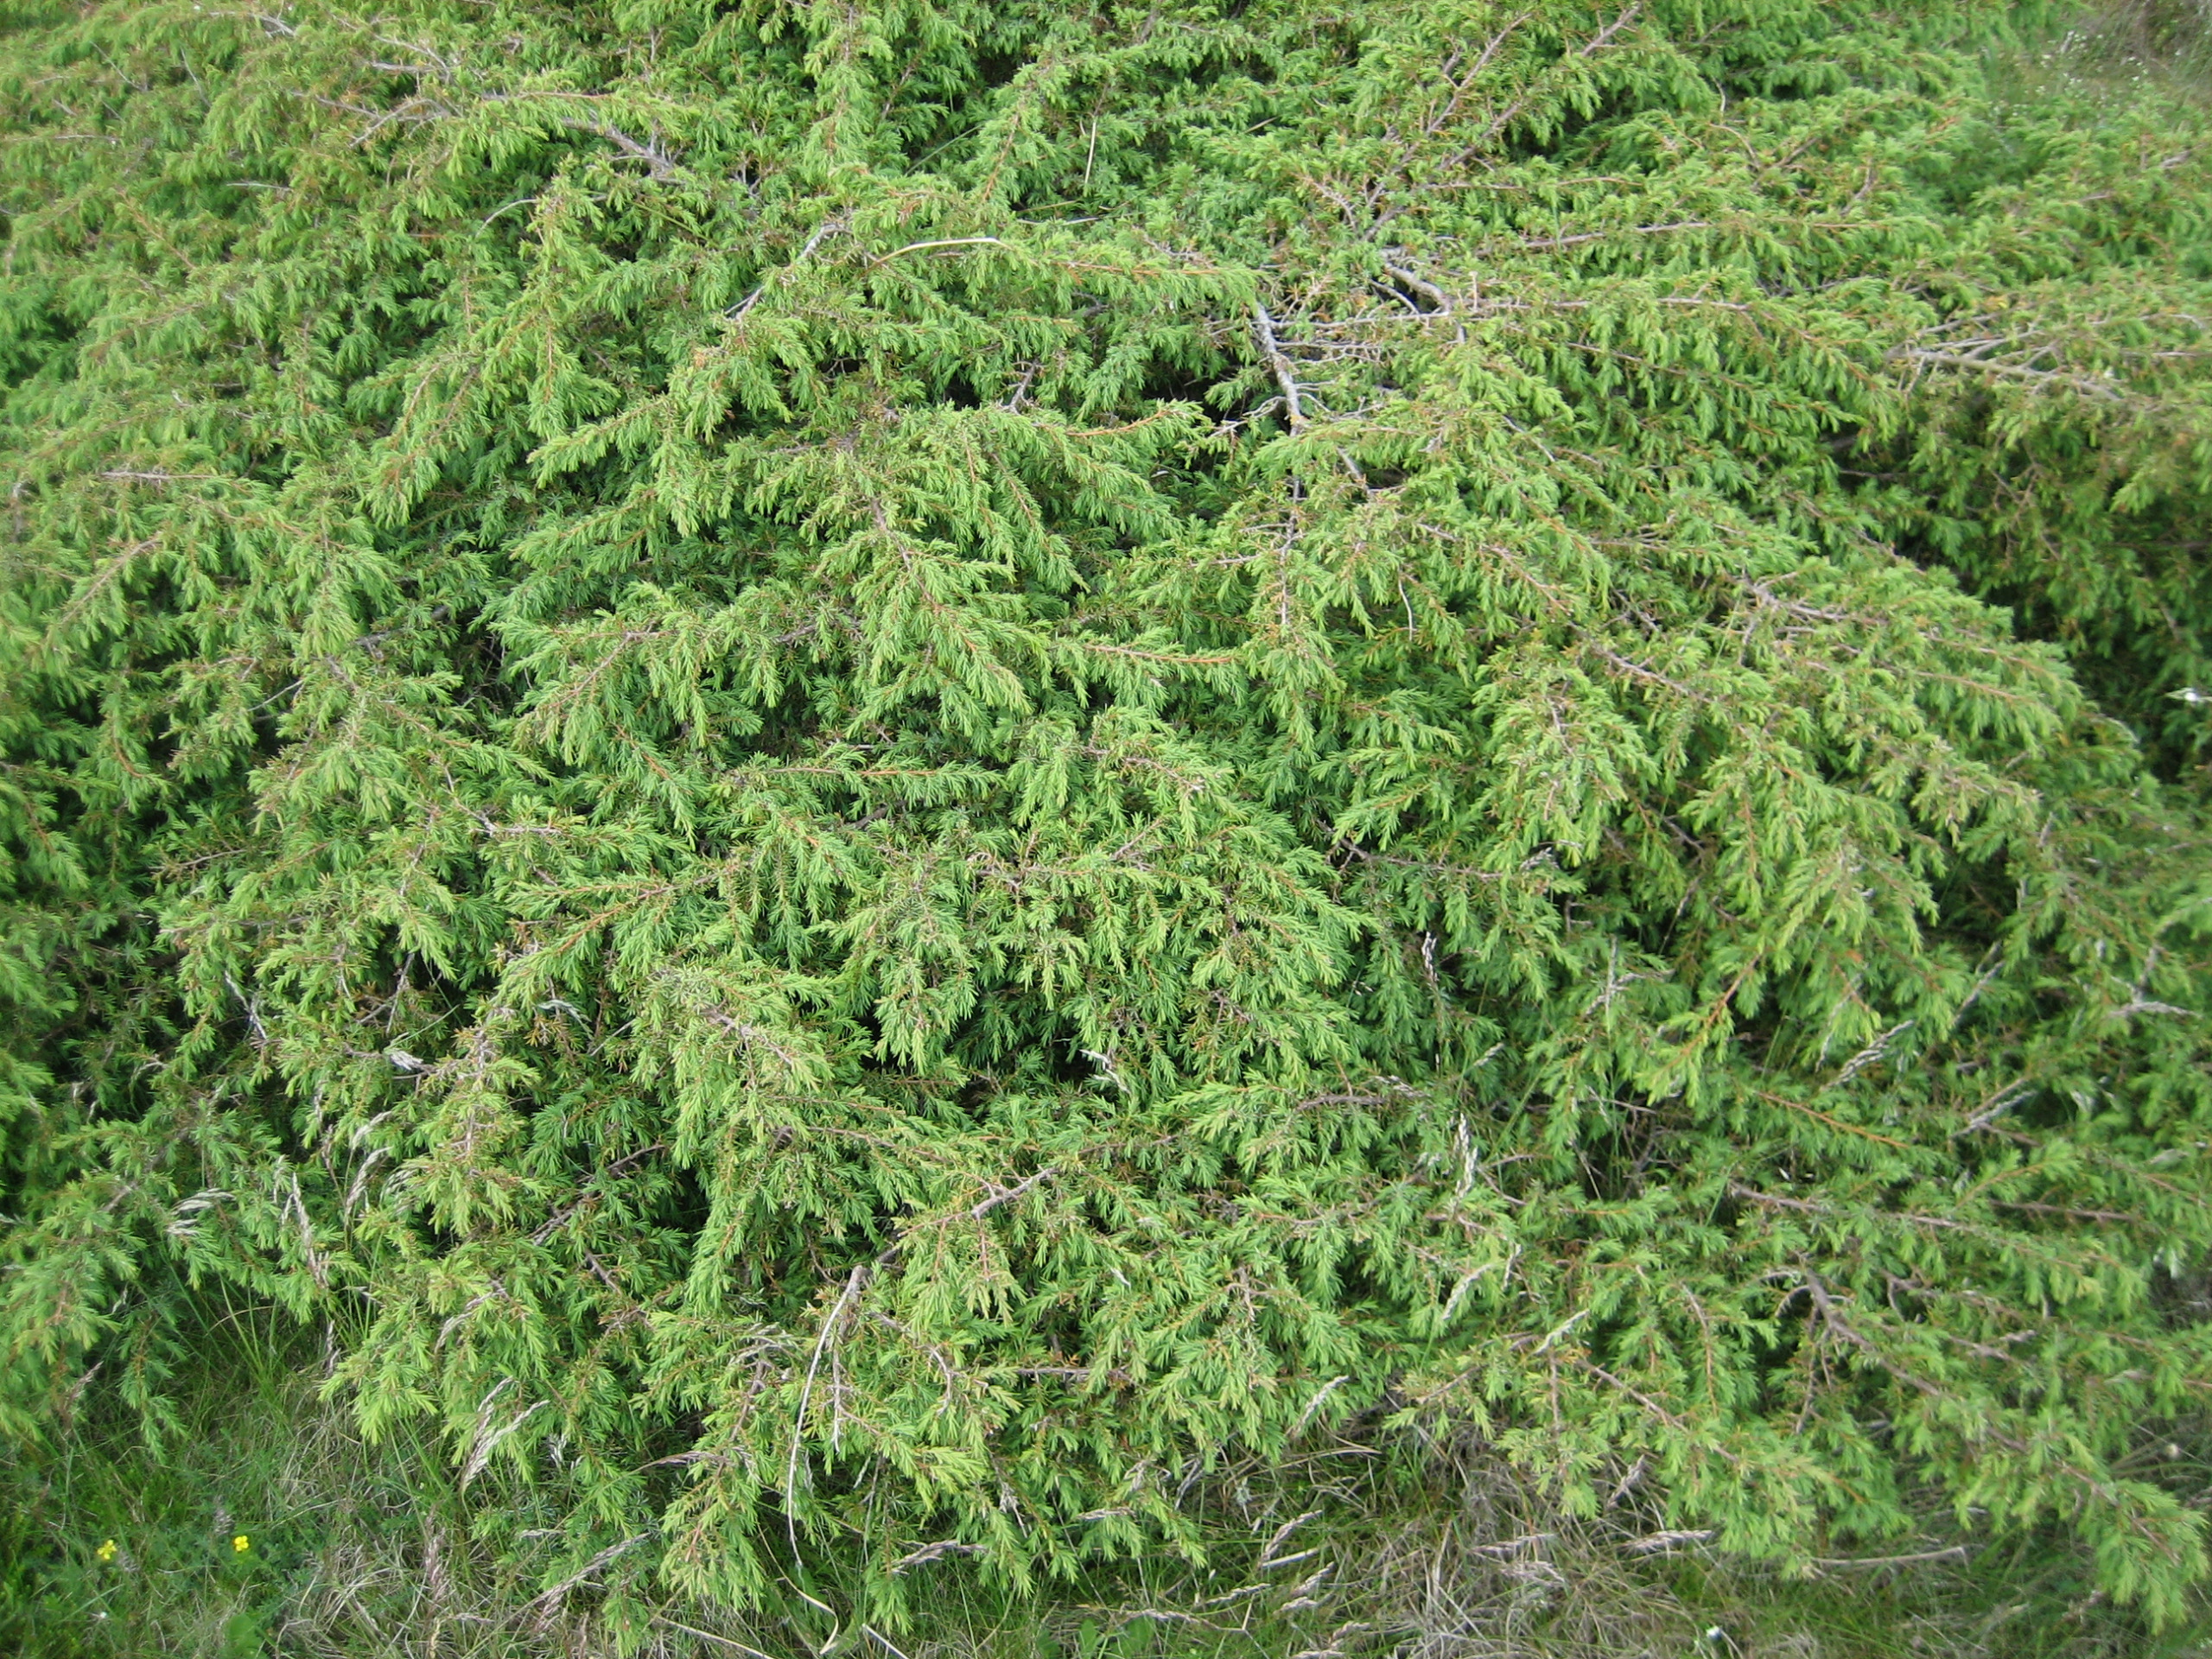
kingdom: Plantae
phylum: Tracheophyta
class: Pinopsida
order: Pinales
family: Cupressaceae
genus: Juniperus
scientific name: Juniperus communis
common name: Almindelig ene
